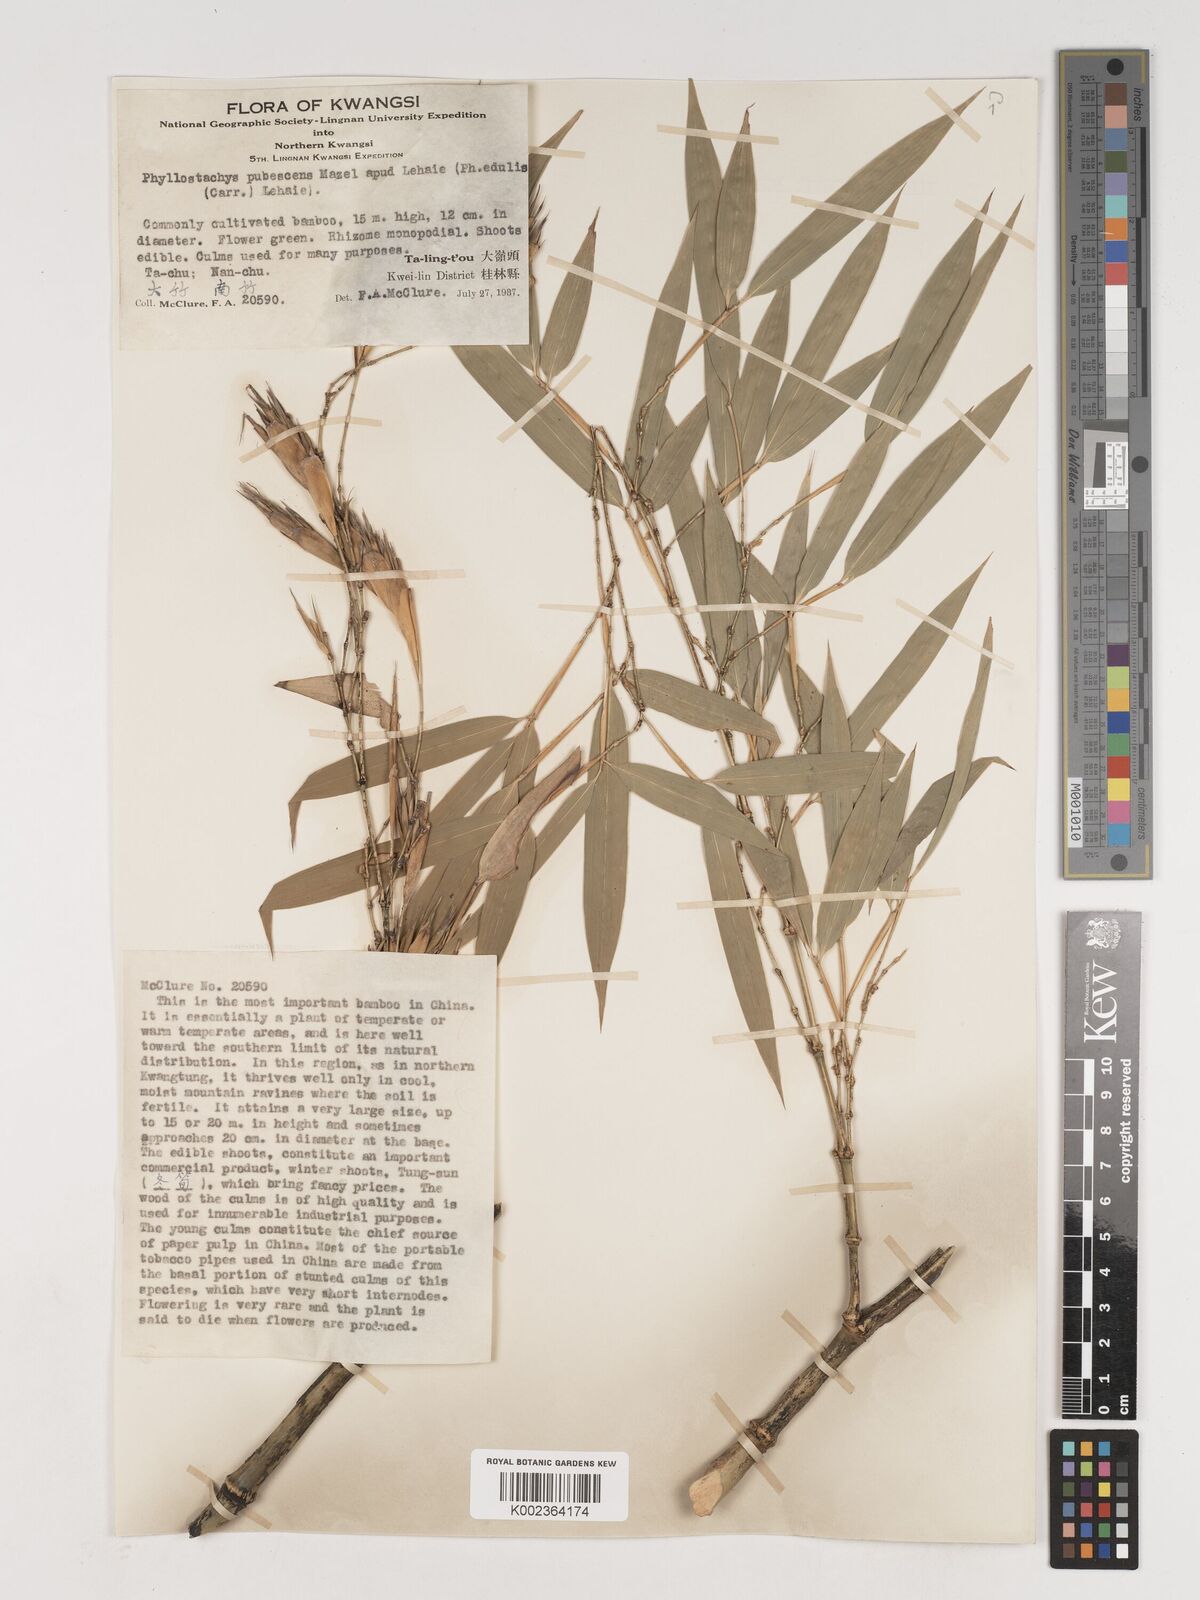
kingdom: Plantae
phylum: Tracheophyta
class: Liliopsida
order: Poales
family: Poaceae
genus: Phyllostachys
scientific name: Phyllostachys nidularia
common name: Broom bamboo
